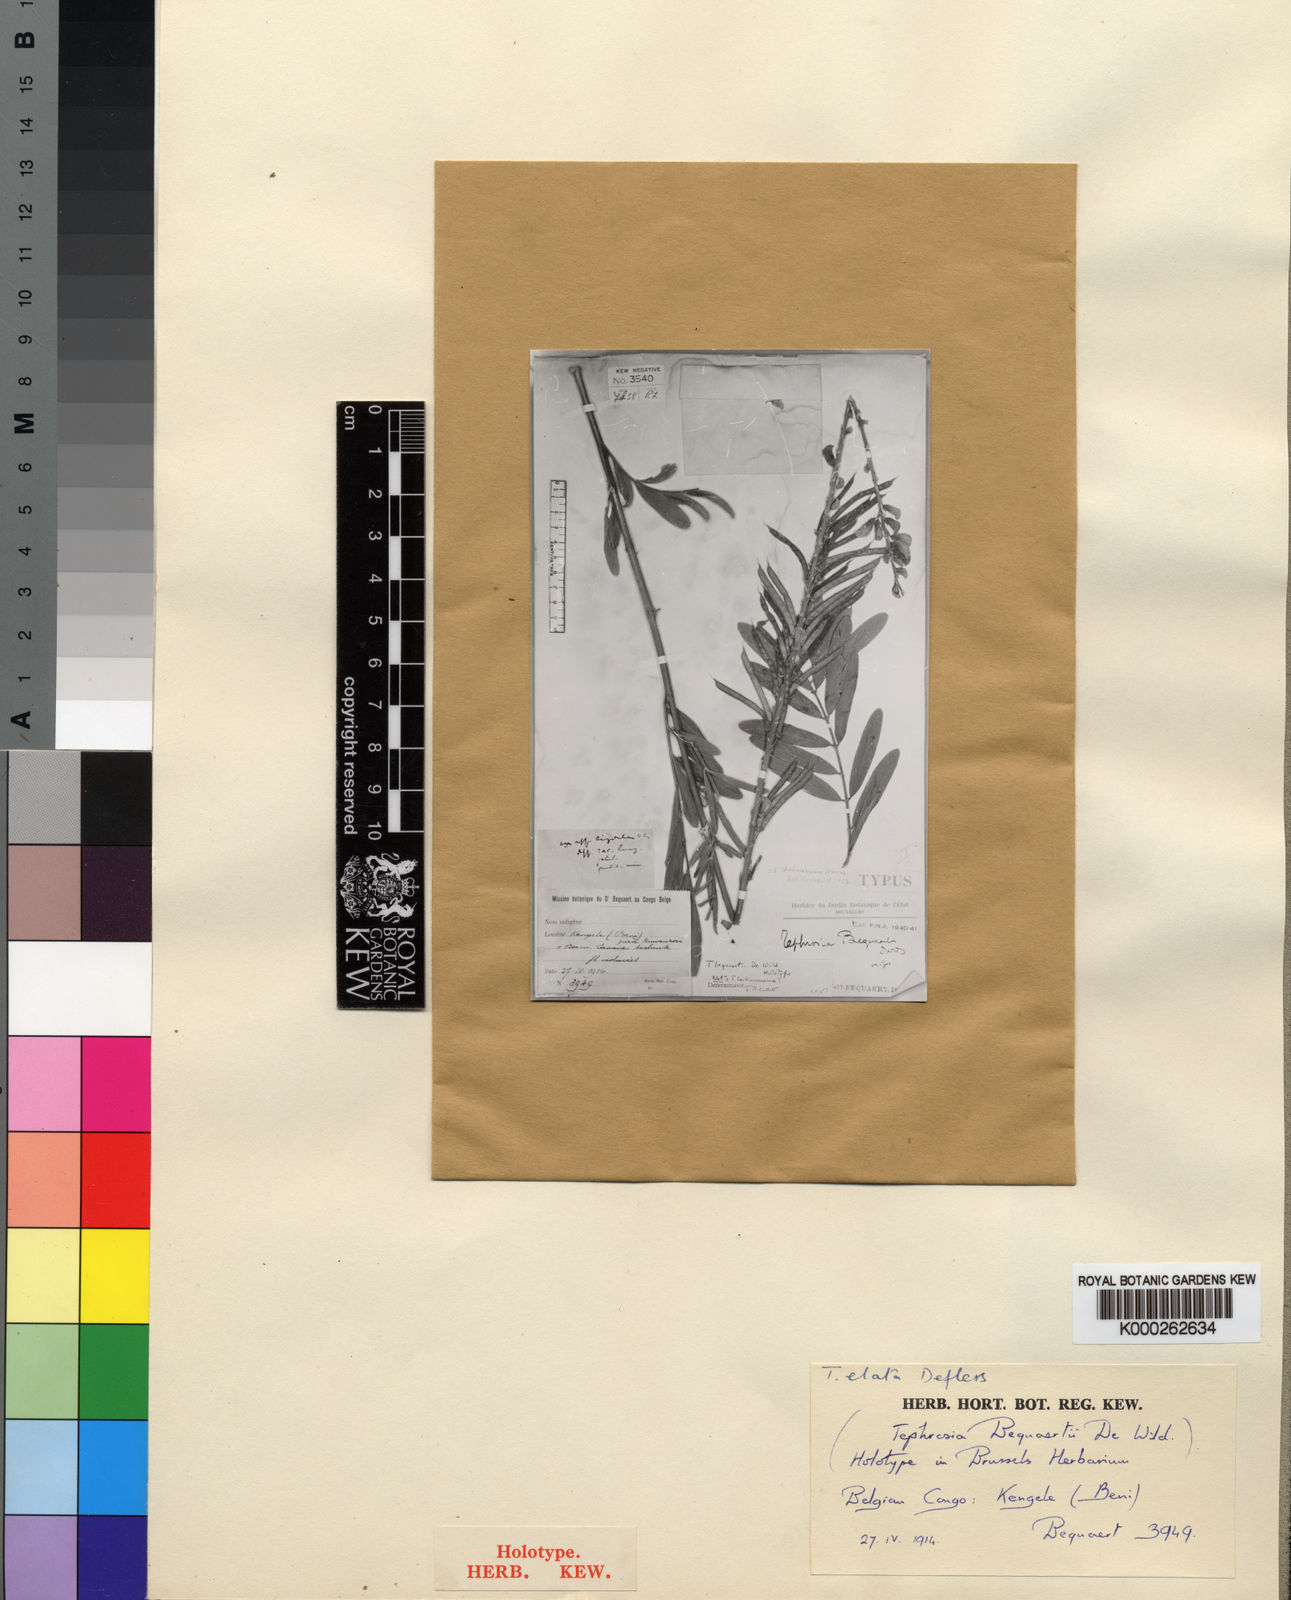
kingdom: Plantae
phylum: Tracheophyta
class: Magnoliopsida
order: Fabales
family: Fabaceae
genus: Tephrosia
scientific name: Tephrosia elata
